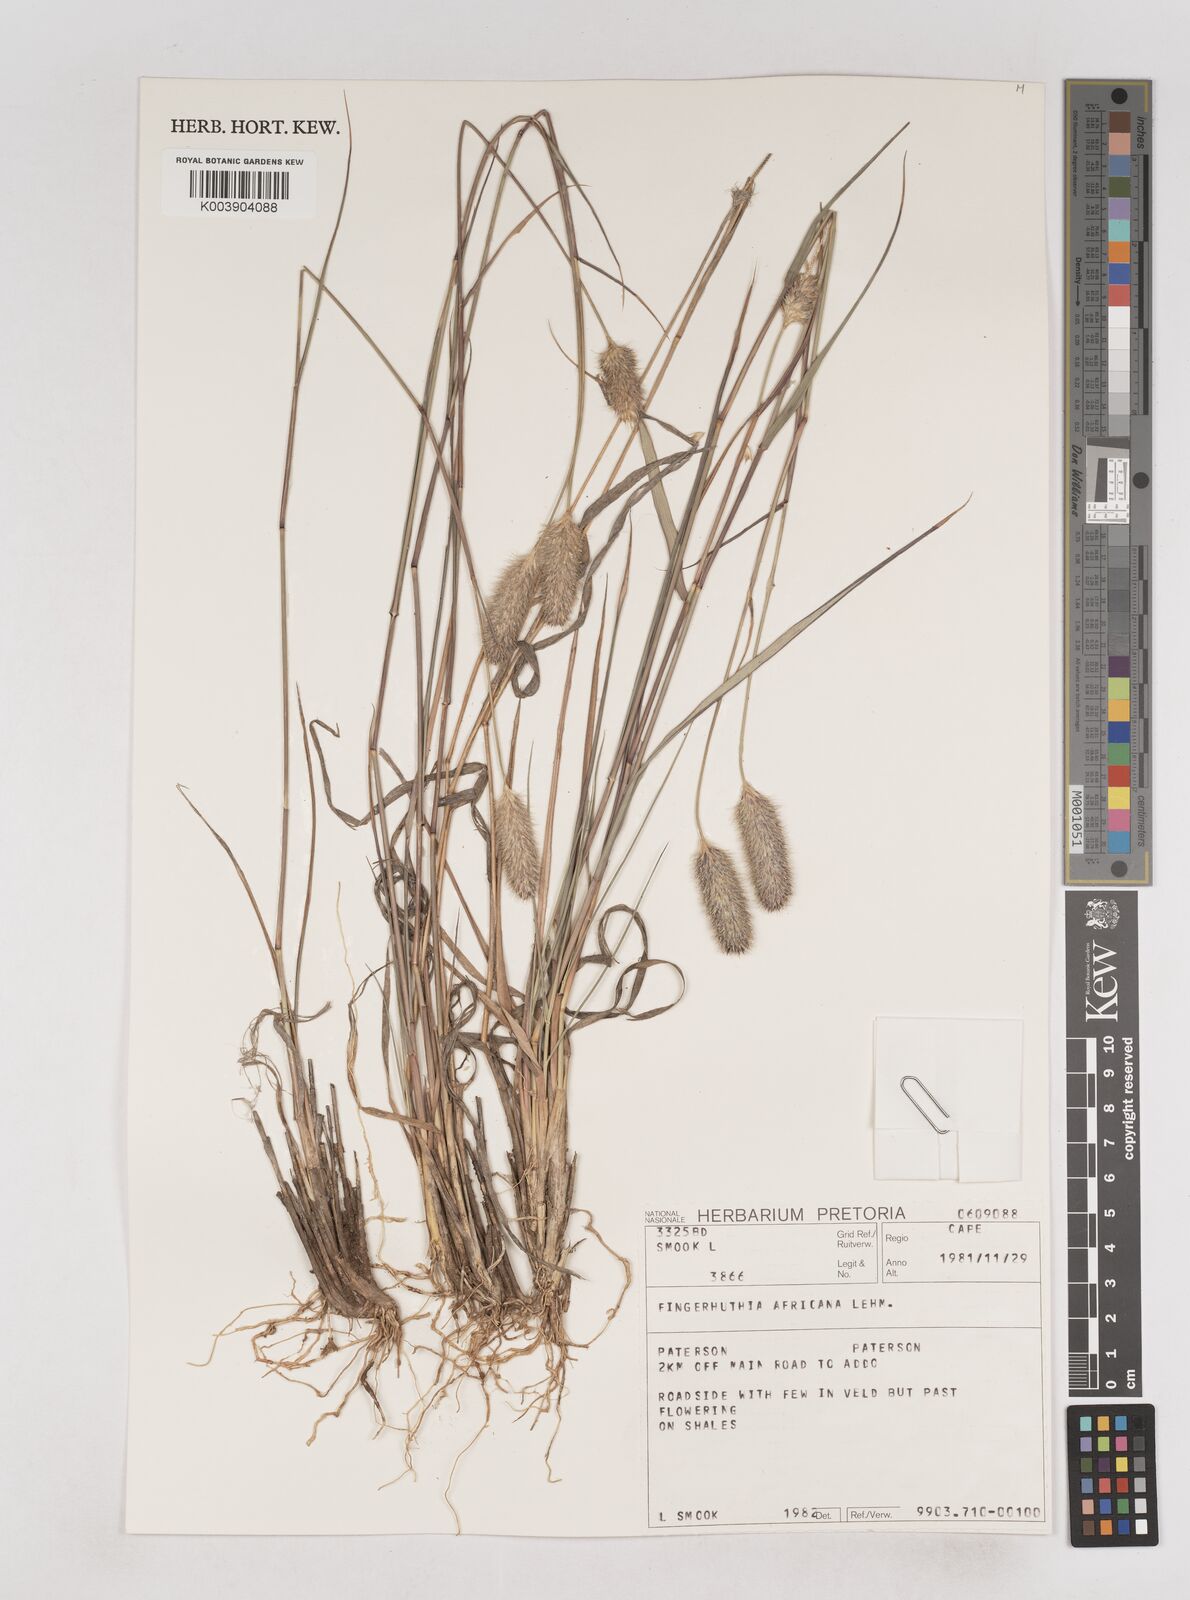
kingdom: Plantae
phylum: Tracheophyta
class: Liliopsida
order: Poales
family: Poaceae
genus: Fingerhuthia
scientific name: Fingerhuthia africana
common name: Zulu fescue
